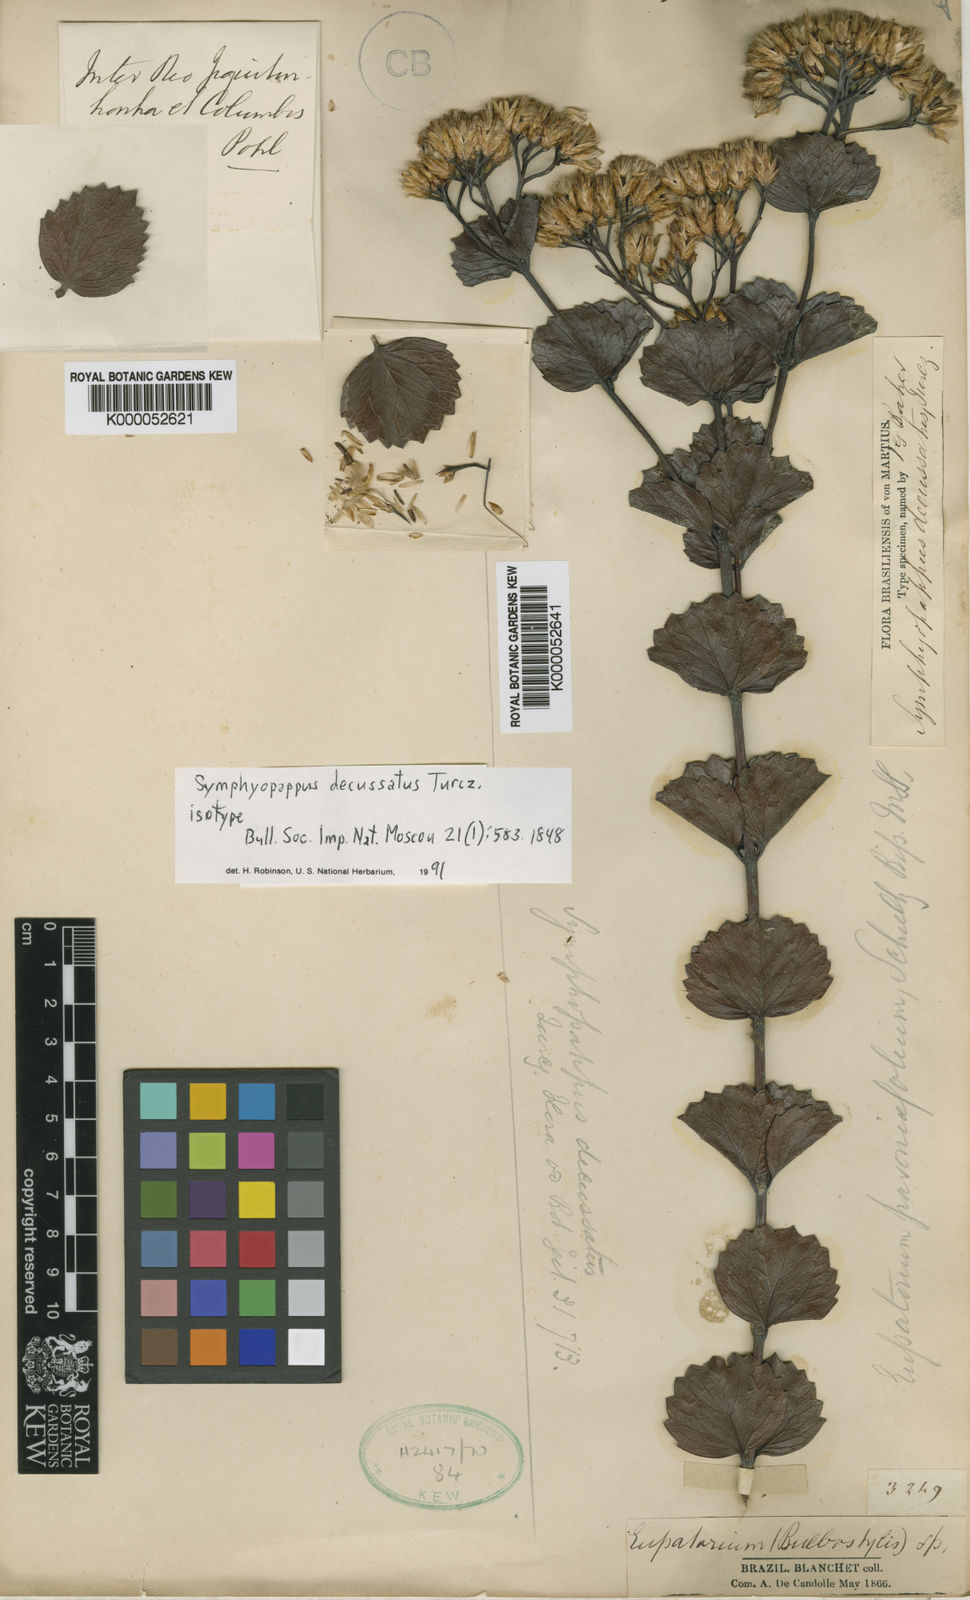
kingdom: Plantae
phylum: Tracheophyta
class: Magnoliopsida
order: Asterales
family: Asteraceae
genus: Symphyopappus
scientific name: Symphyopappus decussatus
